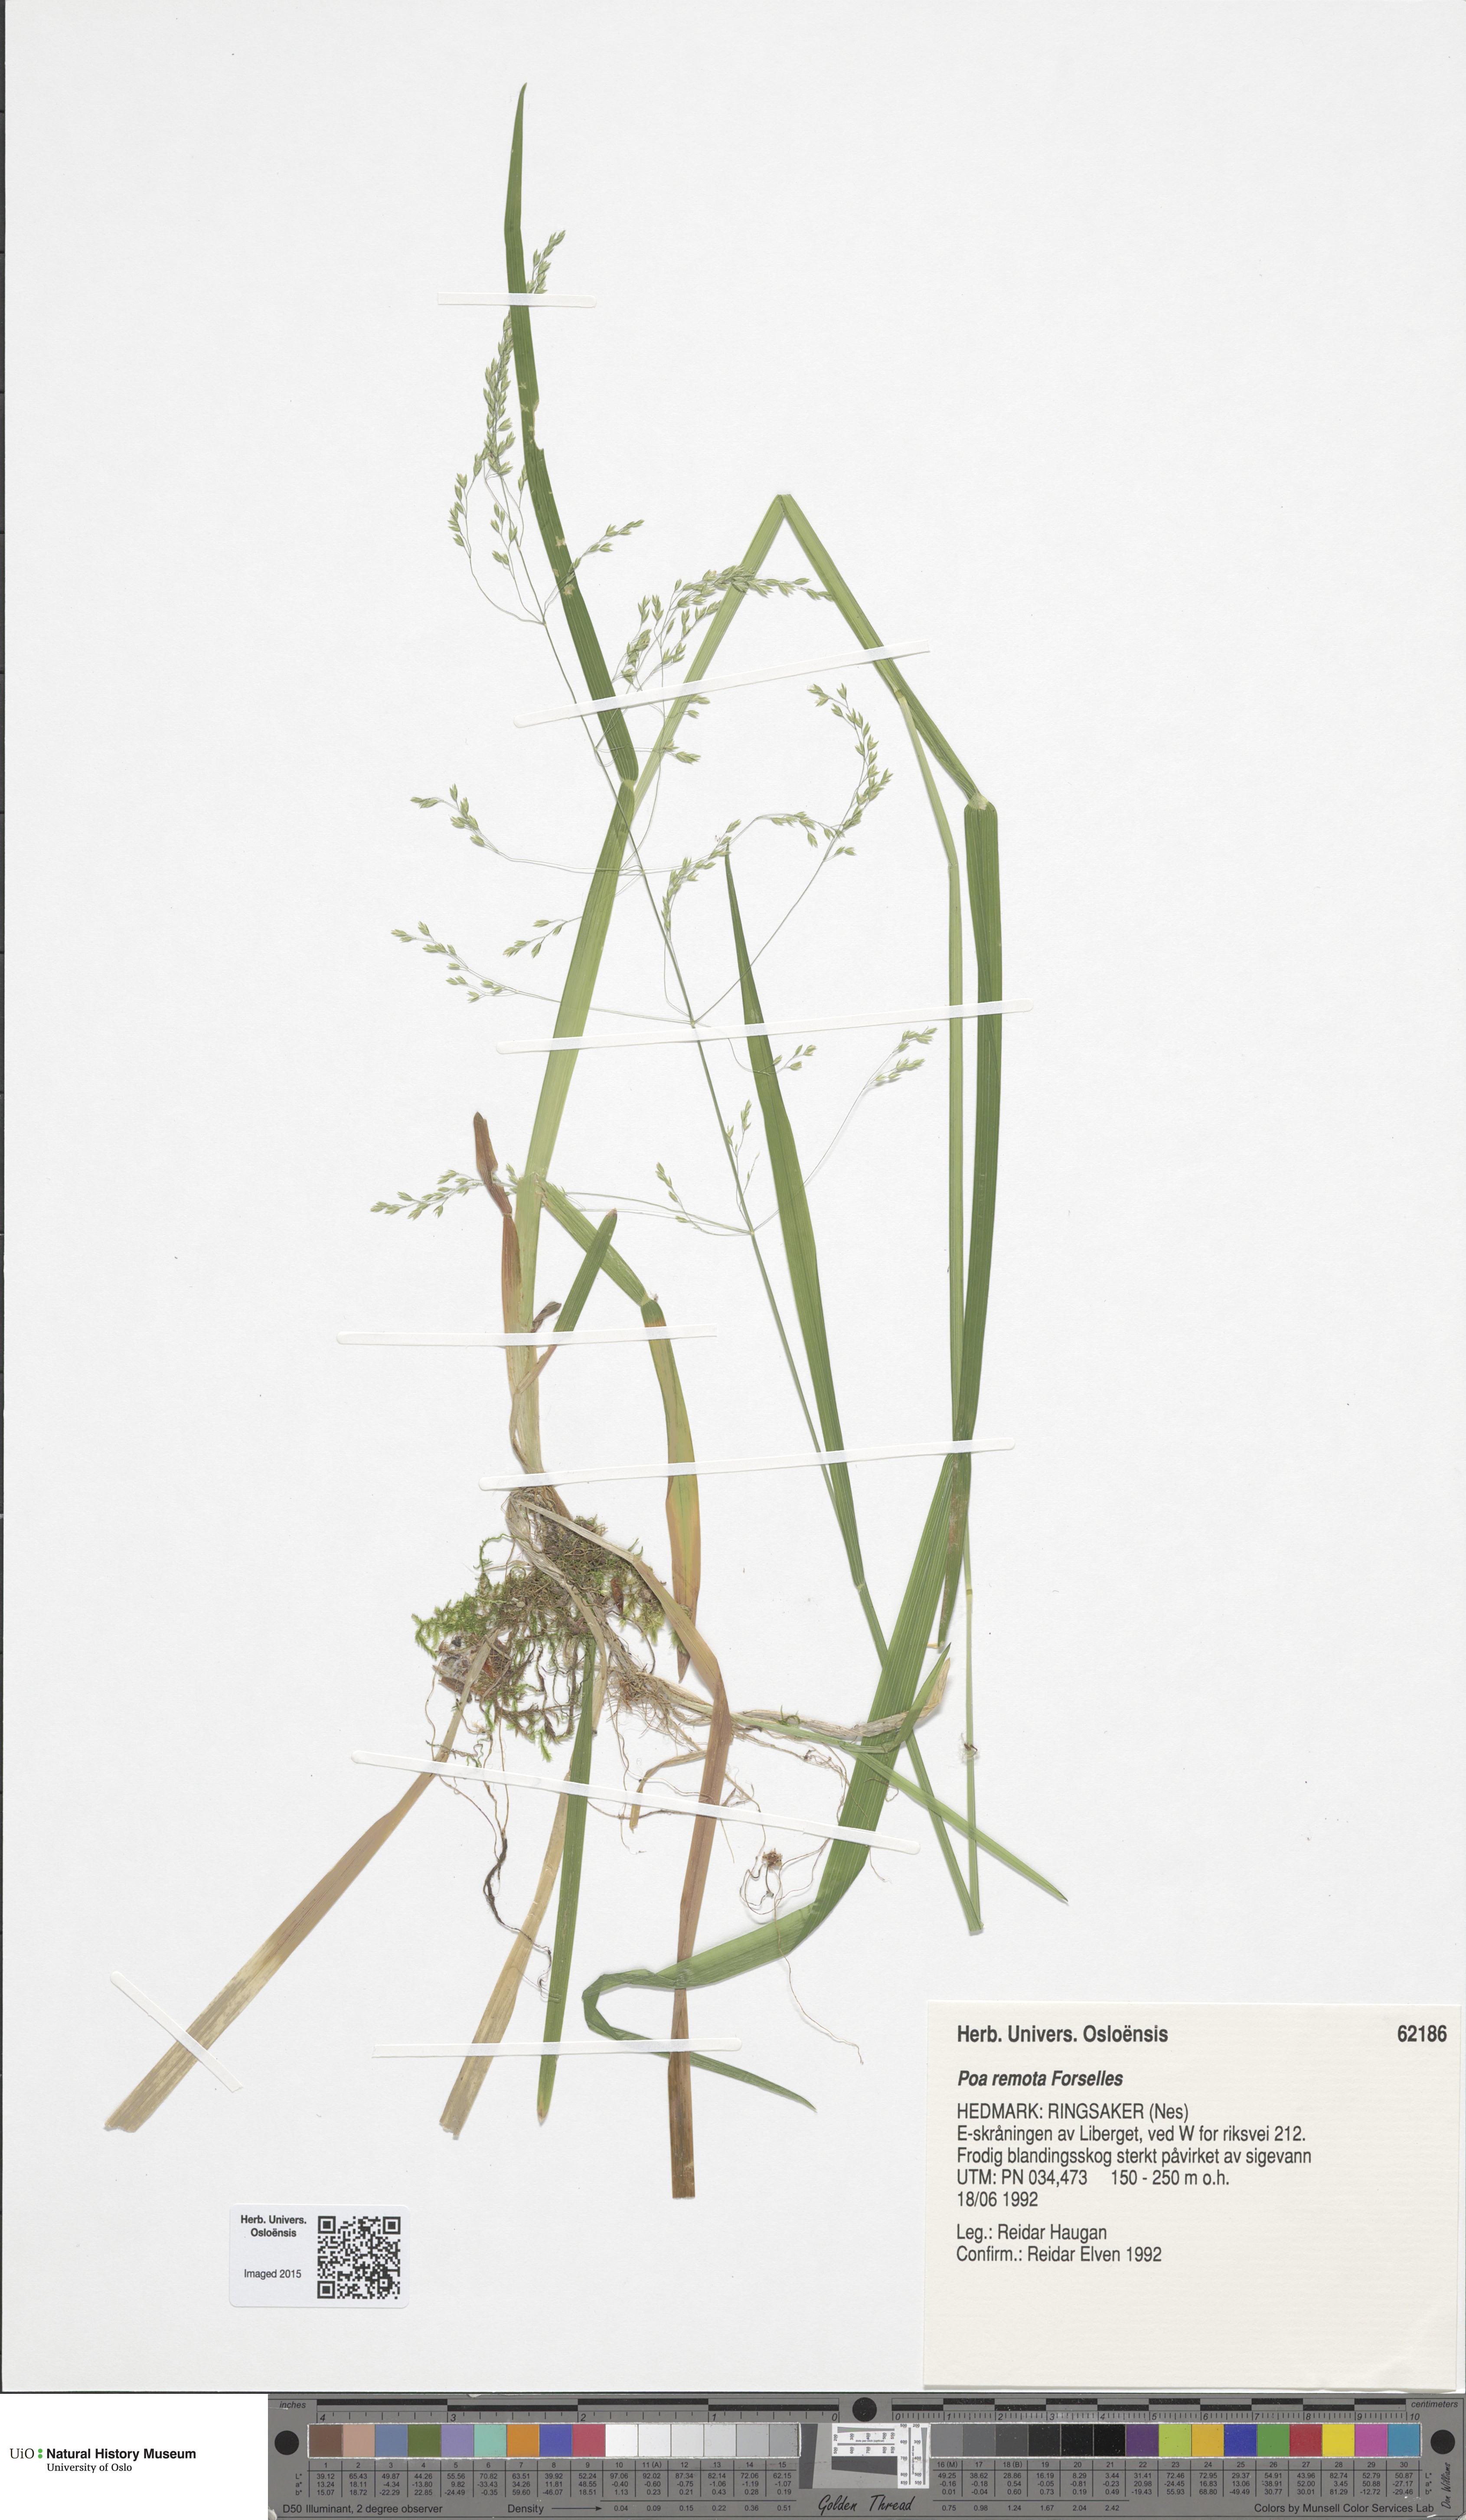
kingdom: Plantae
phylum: Tracheophyta
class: Liliopsida
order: Poales
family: Poaceae
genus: Poa
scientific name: Poa remota
